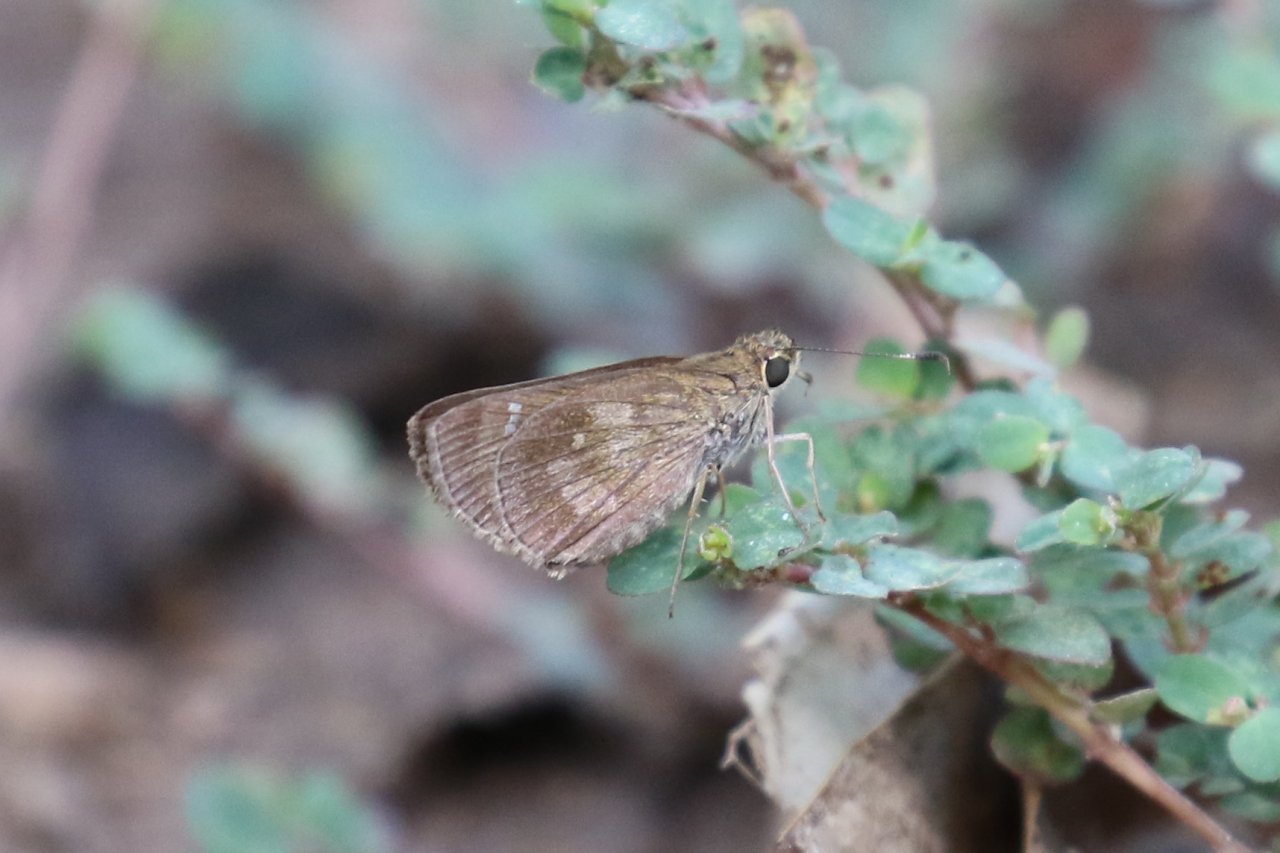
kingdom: Animalia
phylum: Arthropoda
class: Insecta
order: Lepidoptera
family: Hesperiidae
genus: Cymaenes
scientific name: Cymaenes odilia
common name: Fawn-spotted Skipper
